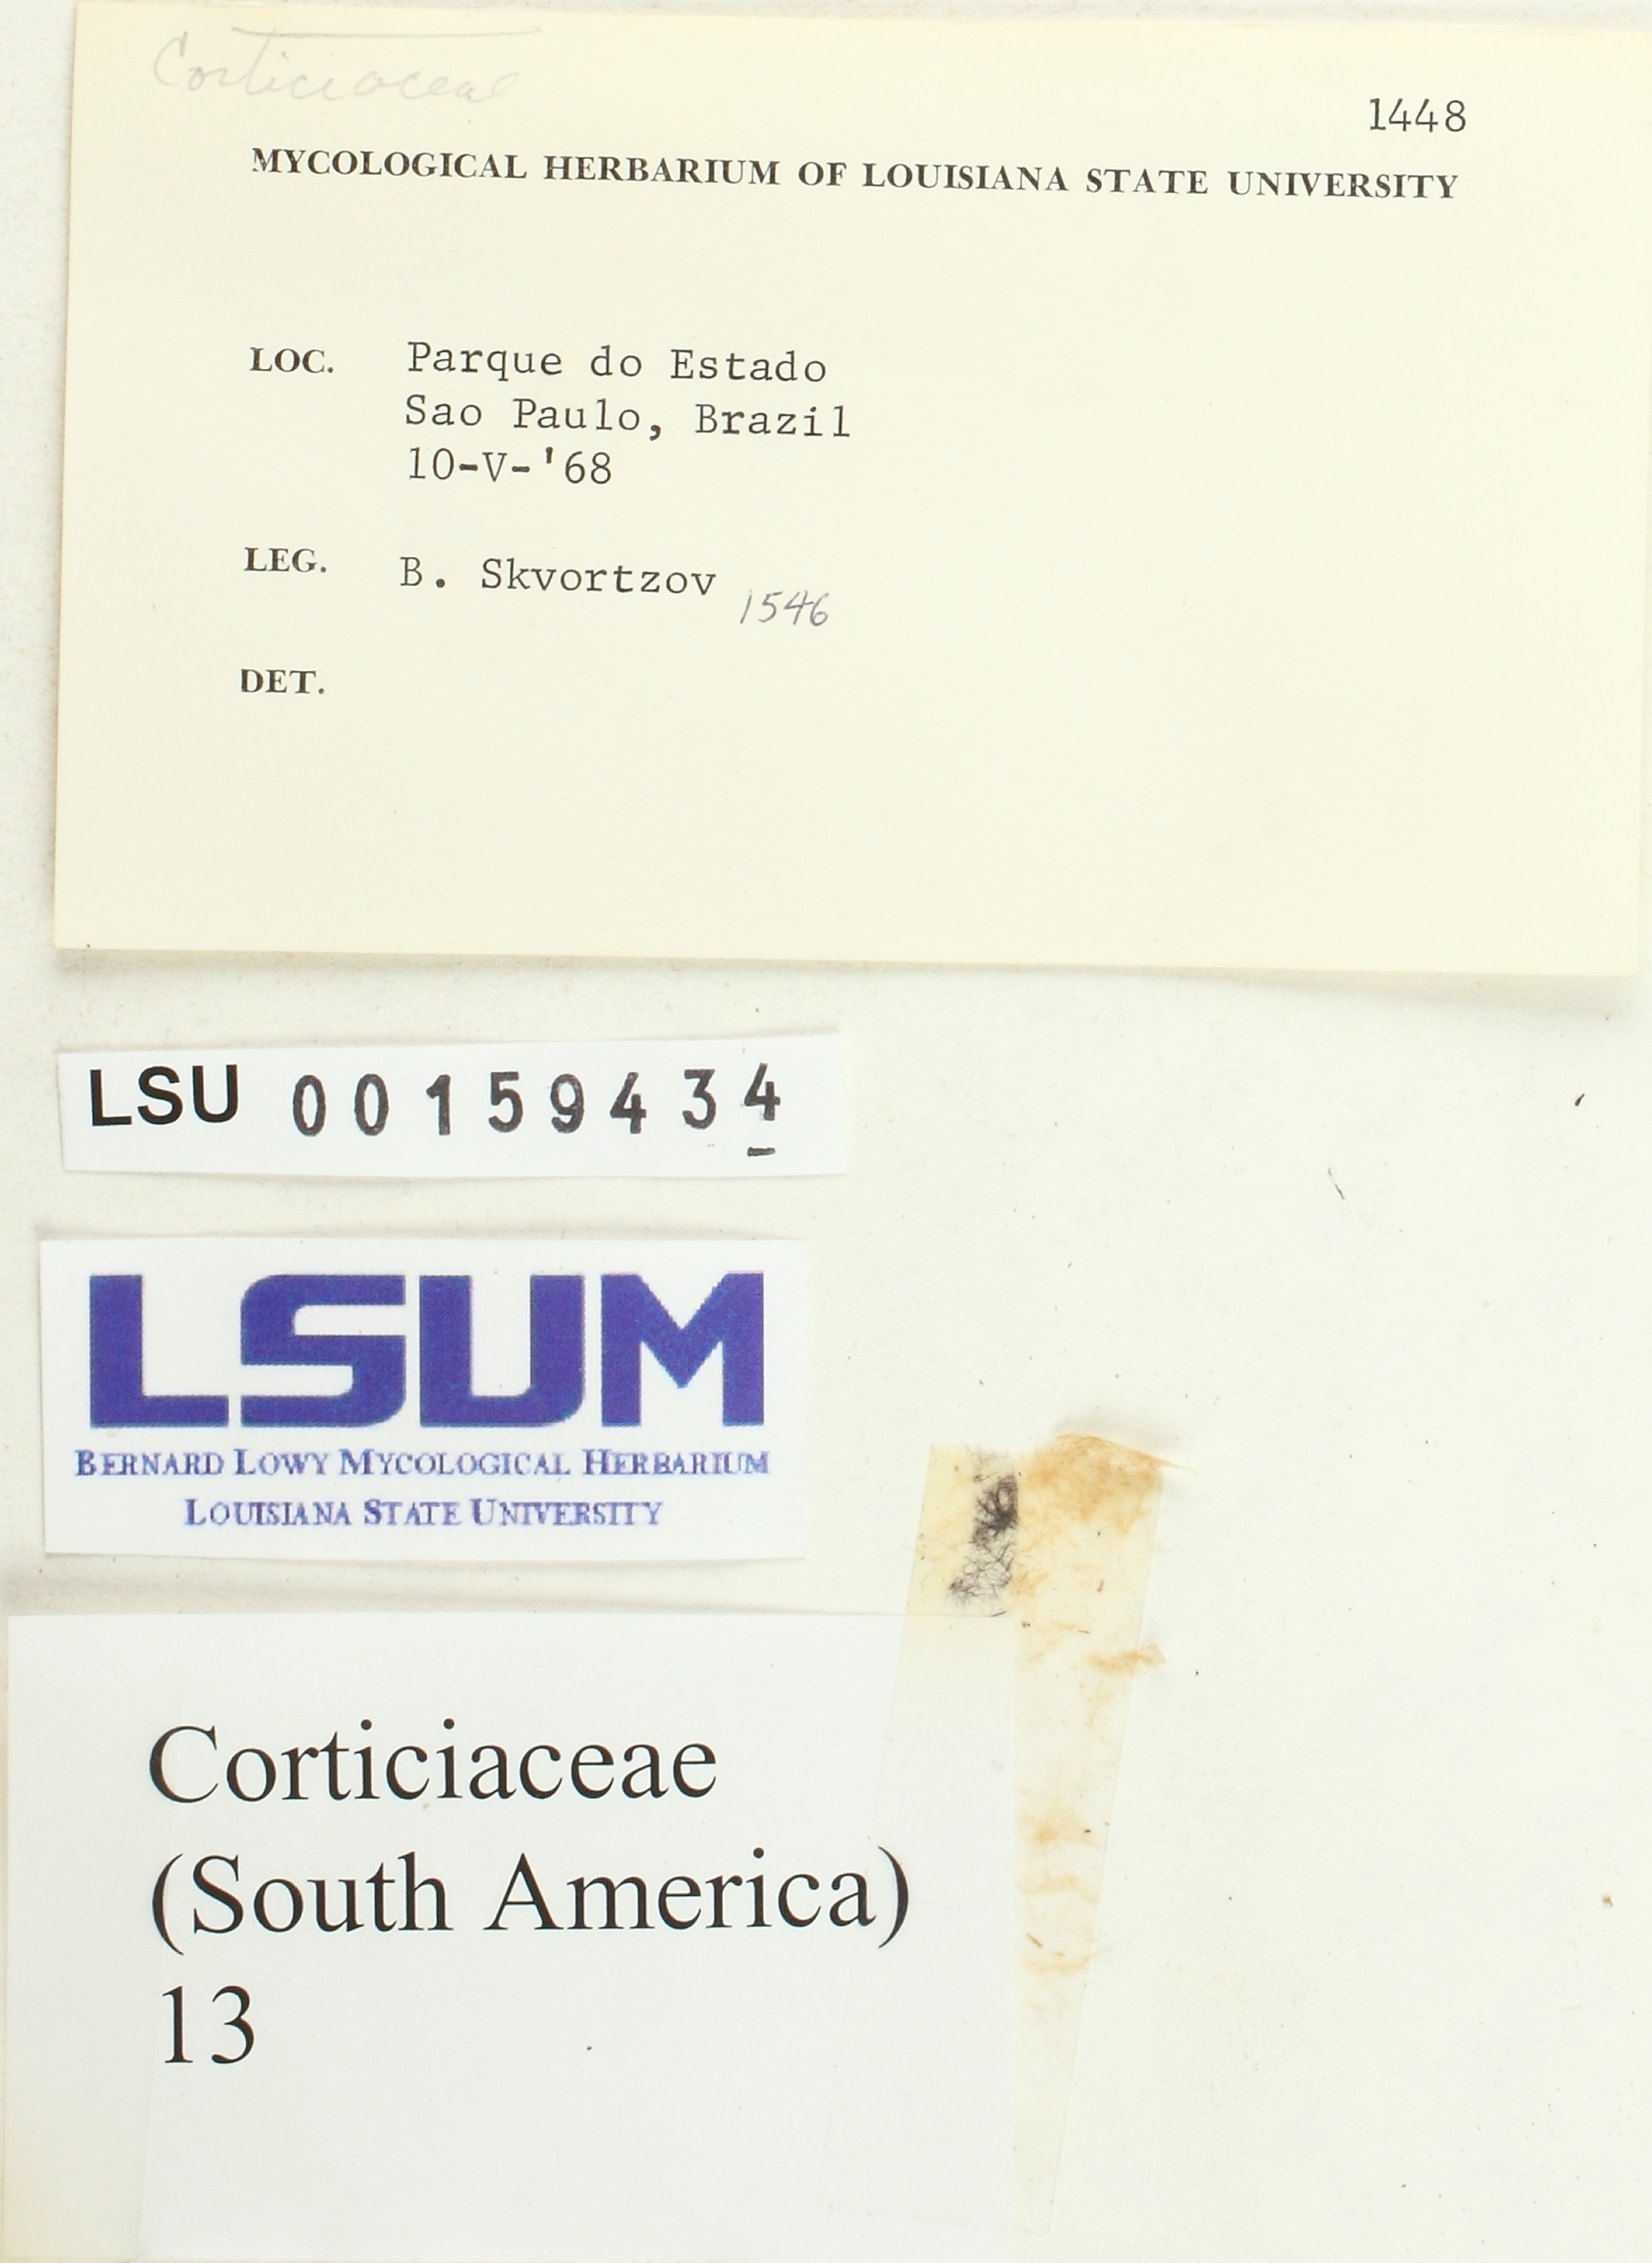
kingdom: Fungi
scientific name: Fungi
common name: Fungi
